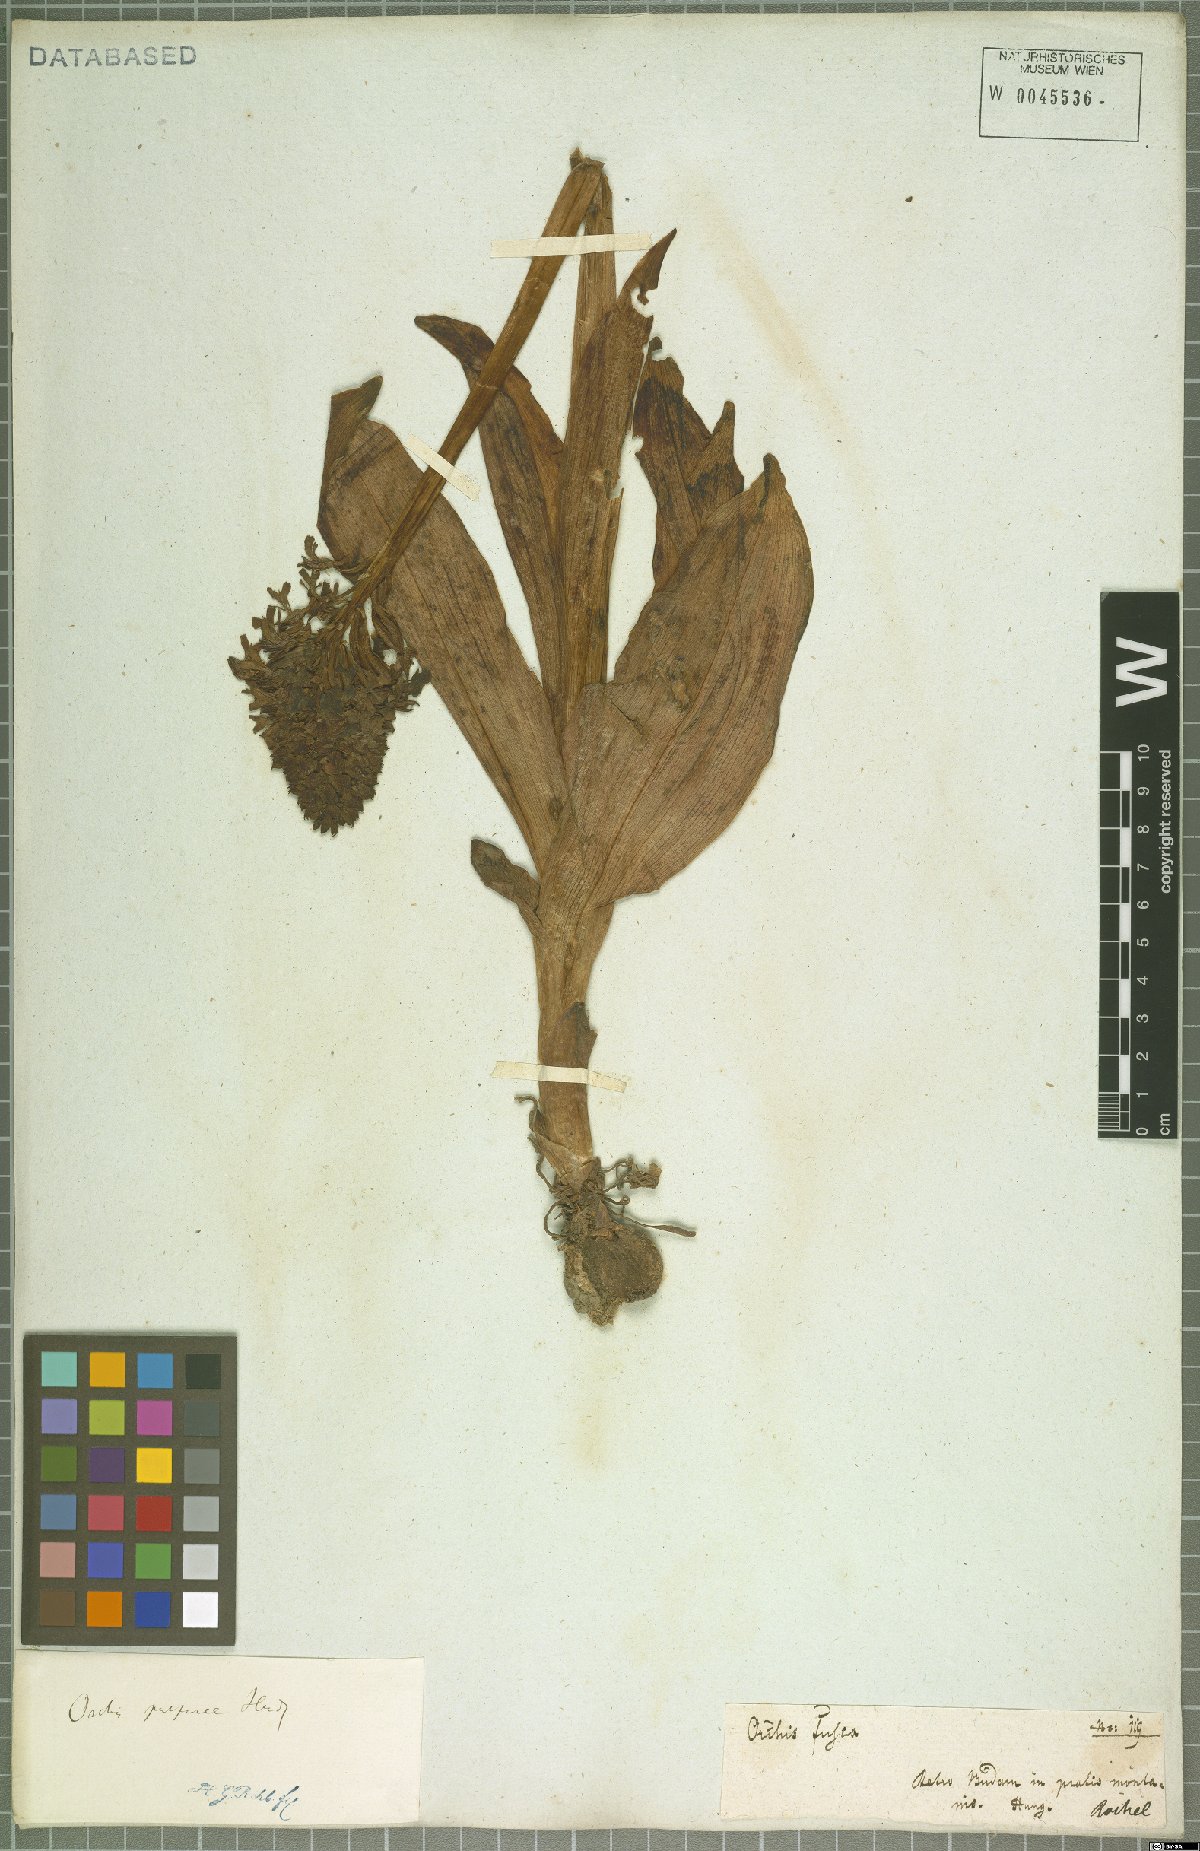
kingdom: Plantae
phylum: Tracheophyta
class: Liliopsida
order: Asparagales
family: Orchidaceae
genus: Orchis
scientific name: Orchis purpurea
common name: Lady orchid
